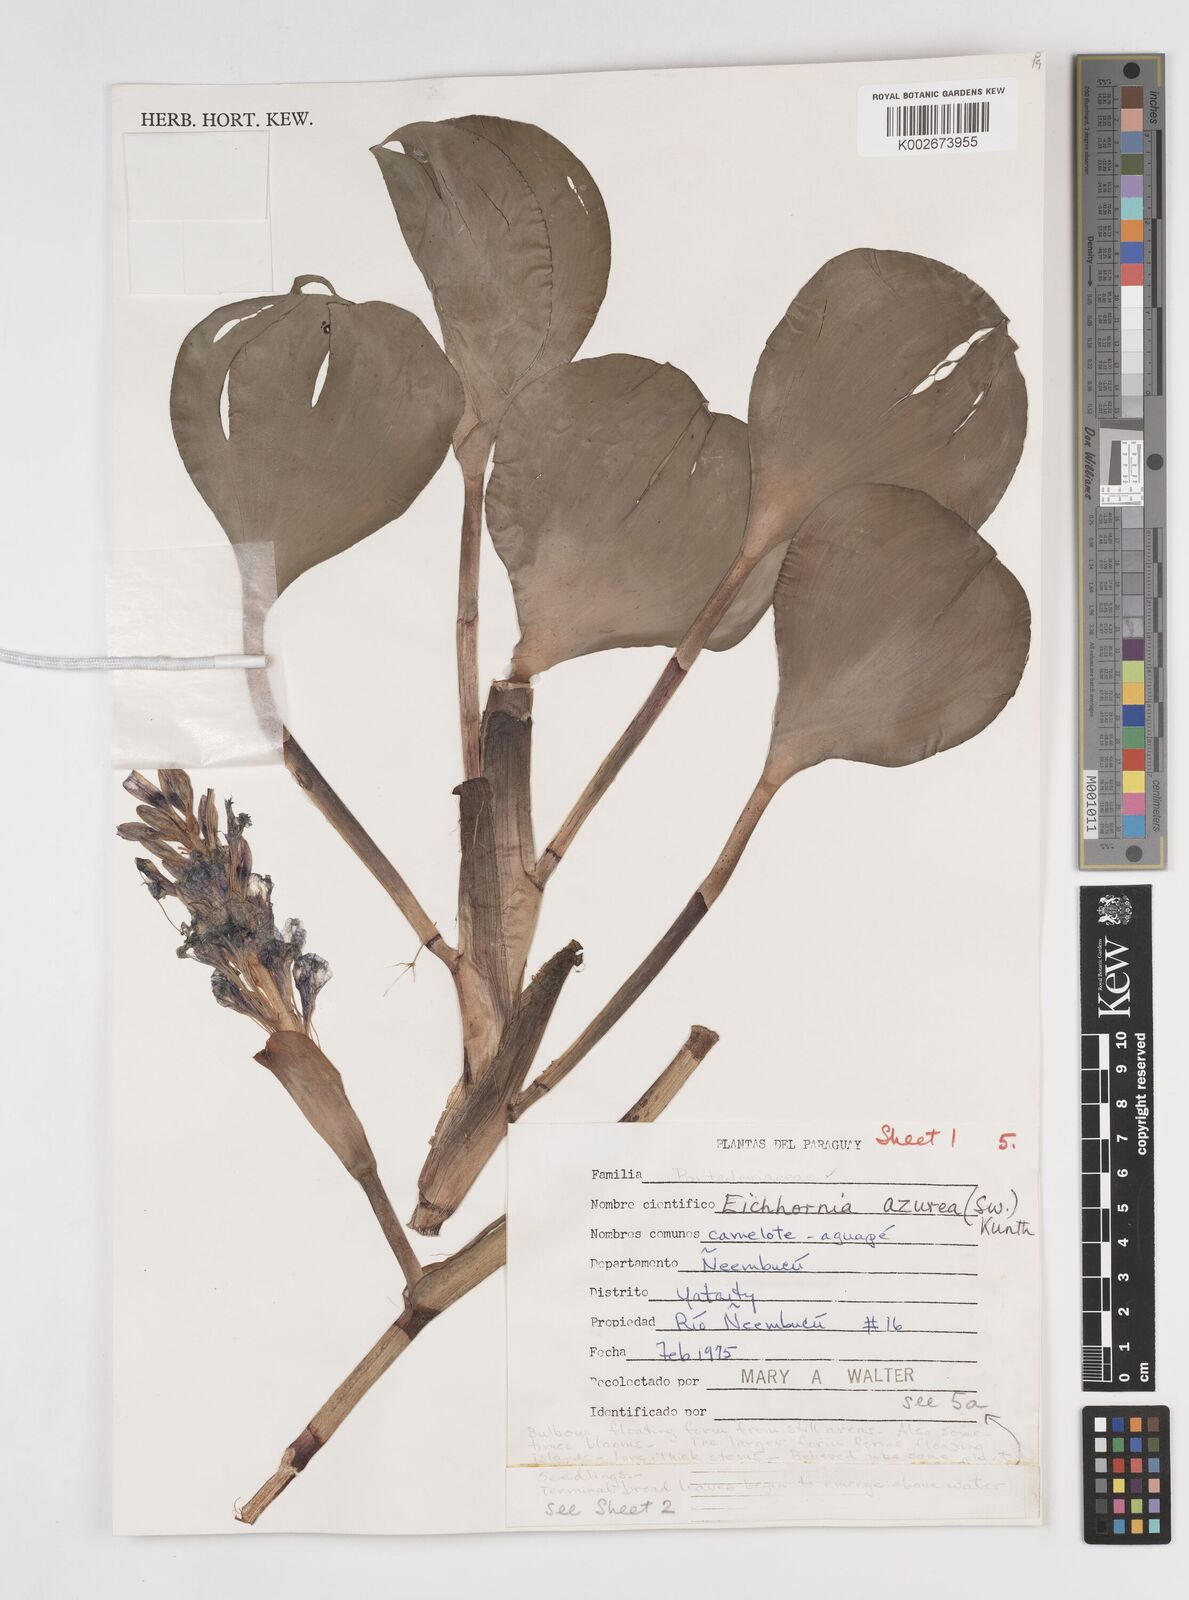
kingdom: Plantae
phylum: Tracheophyta
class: Liliopsida
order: Commelinales
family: Pontederiaceae
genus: Pontederia
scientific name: Pontederia azurea
